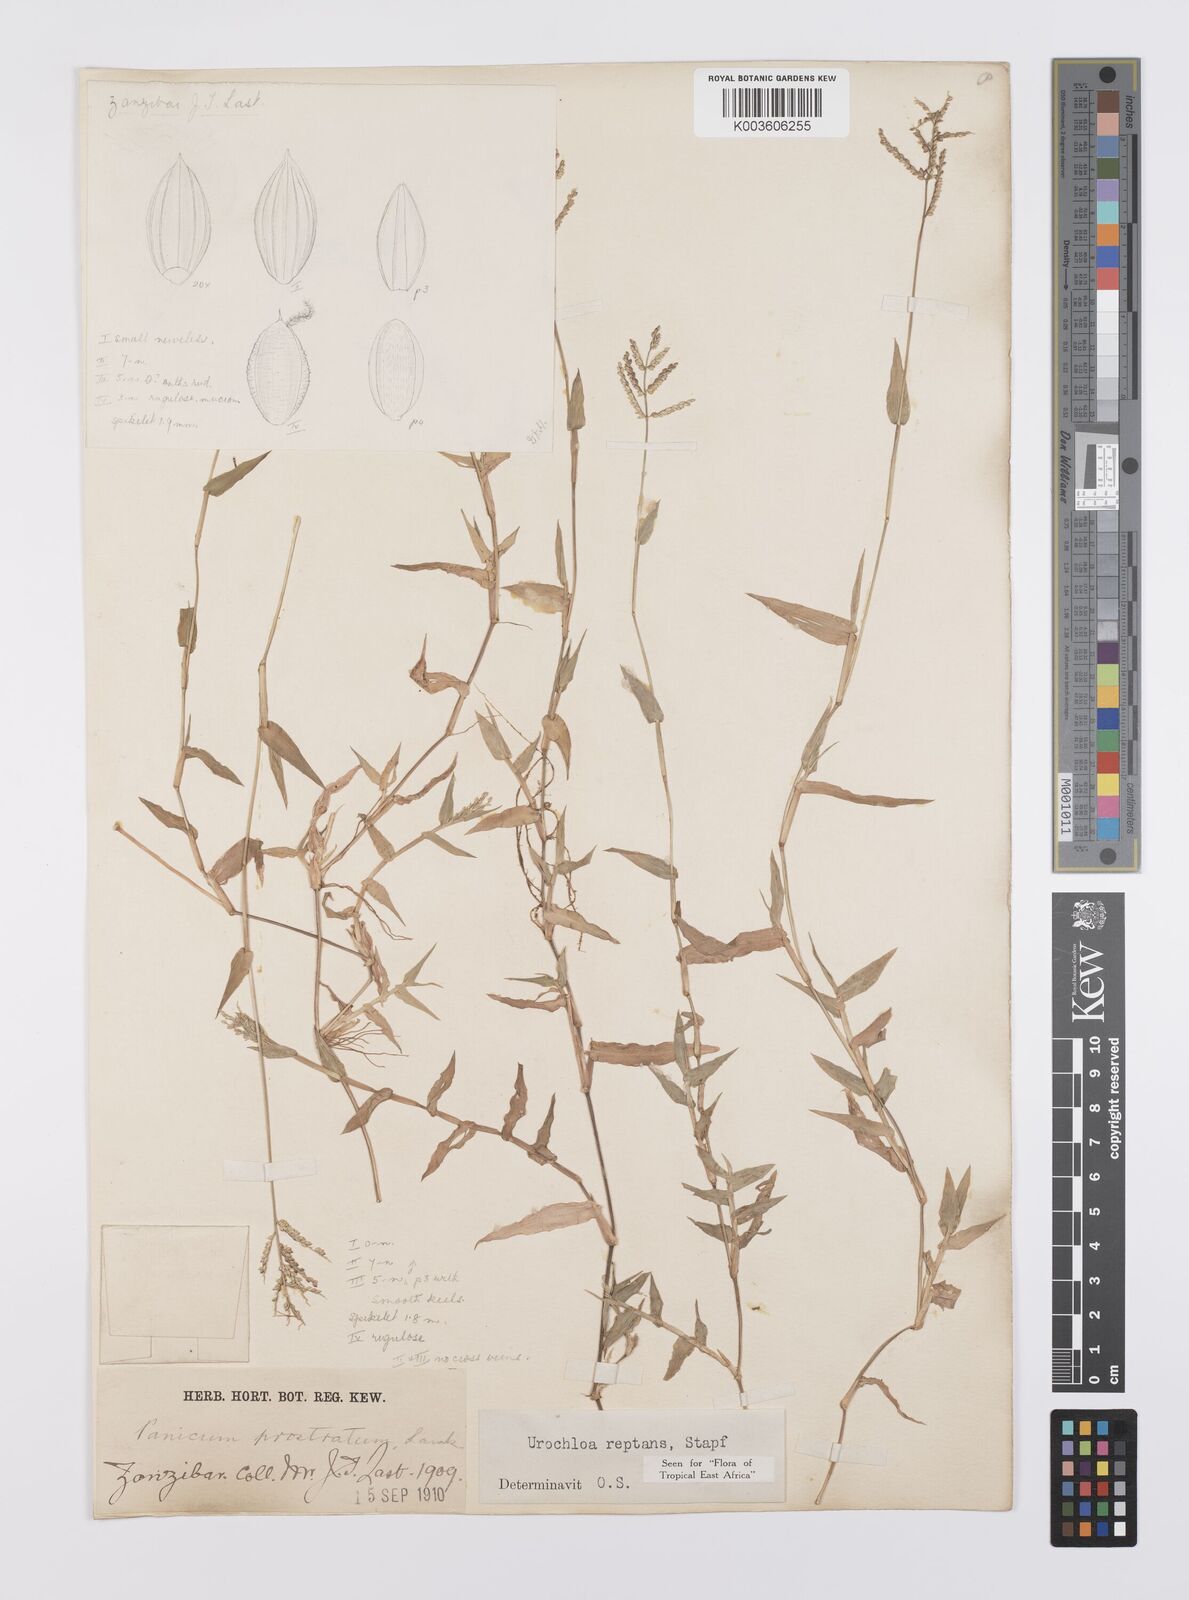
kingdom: Plantae
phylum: Tracheophyta
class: Liliopsida
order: Poales
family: Poaceae
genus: Urochloa
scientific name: Urochloa reptans
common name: Sprawling signalgrass
